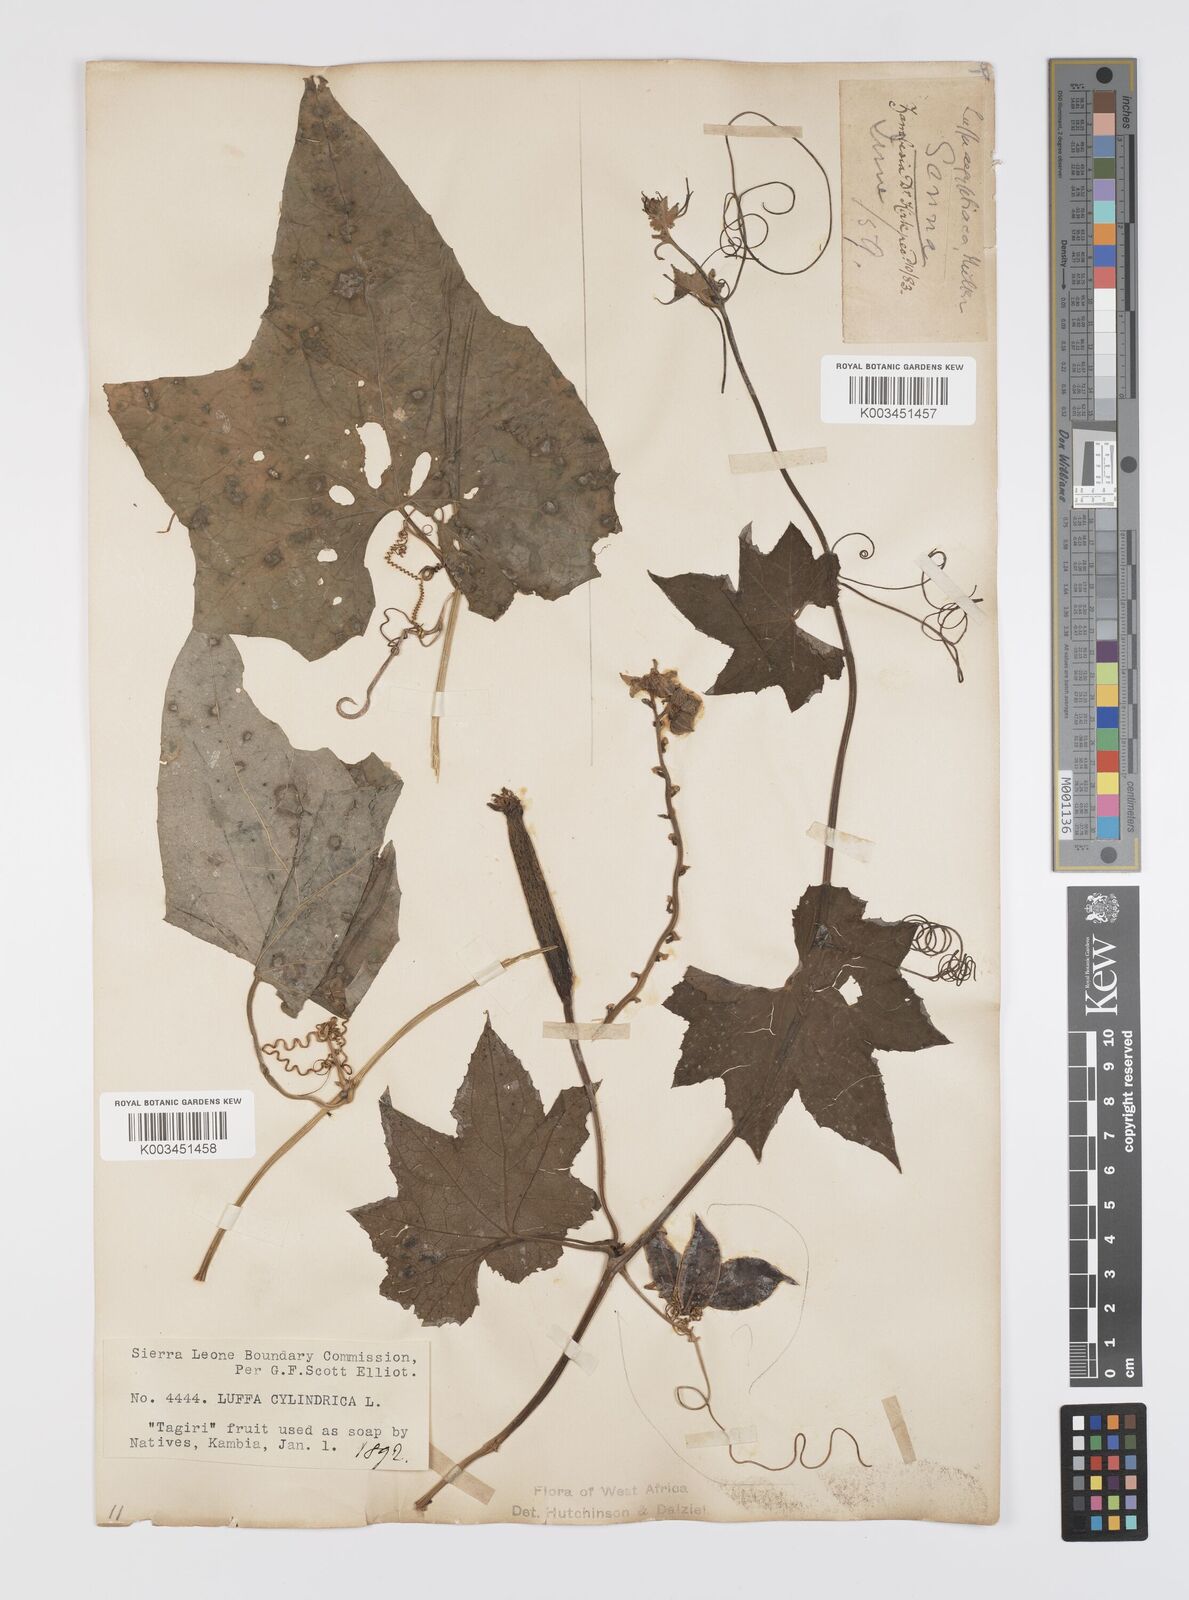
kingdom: Plantae
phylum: Tracheophyta
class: Magnoliopsida
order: Cucurbitales
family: Cucurbitaceae
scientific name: Cucurbitaceae
